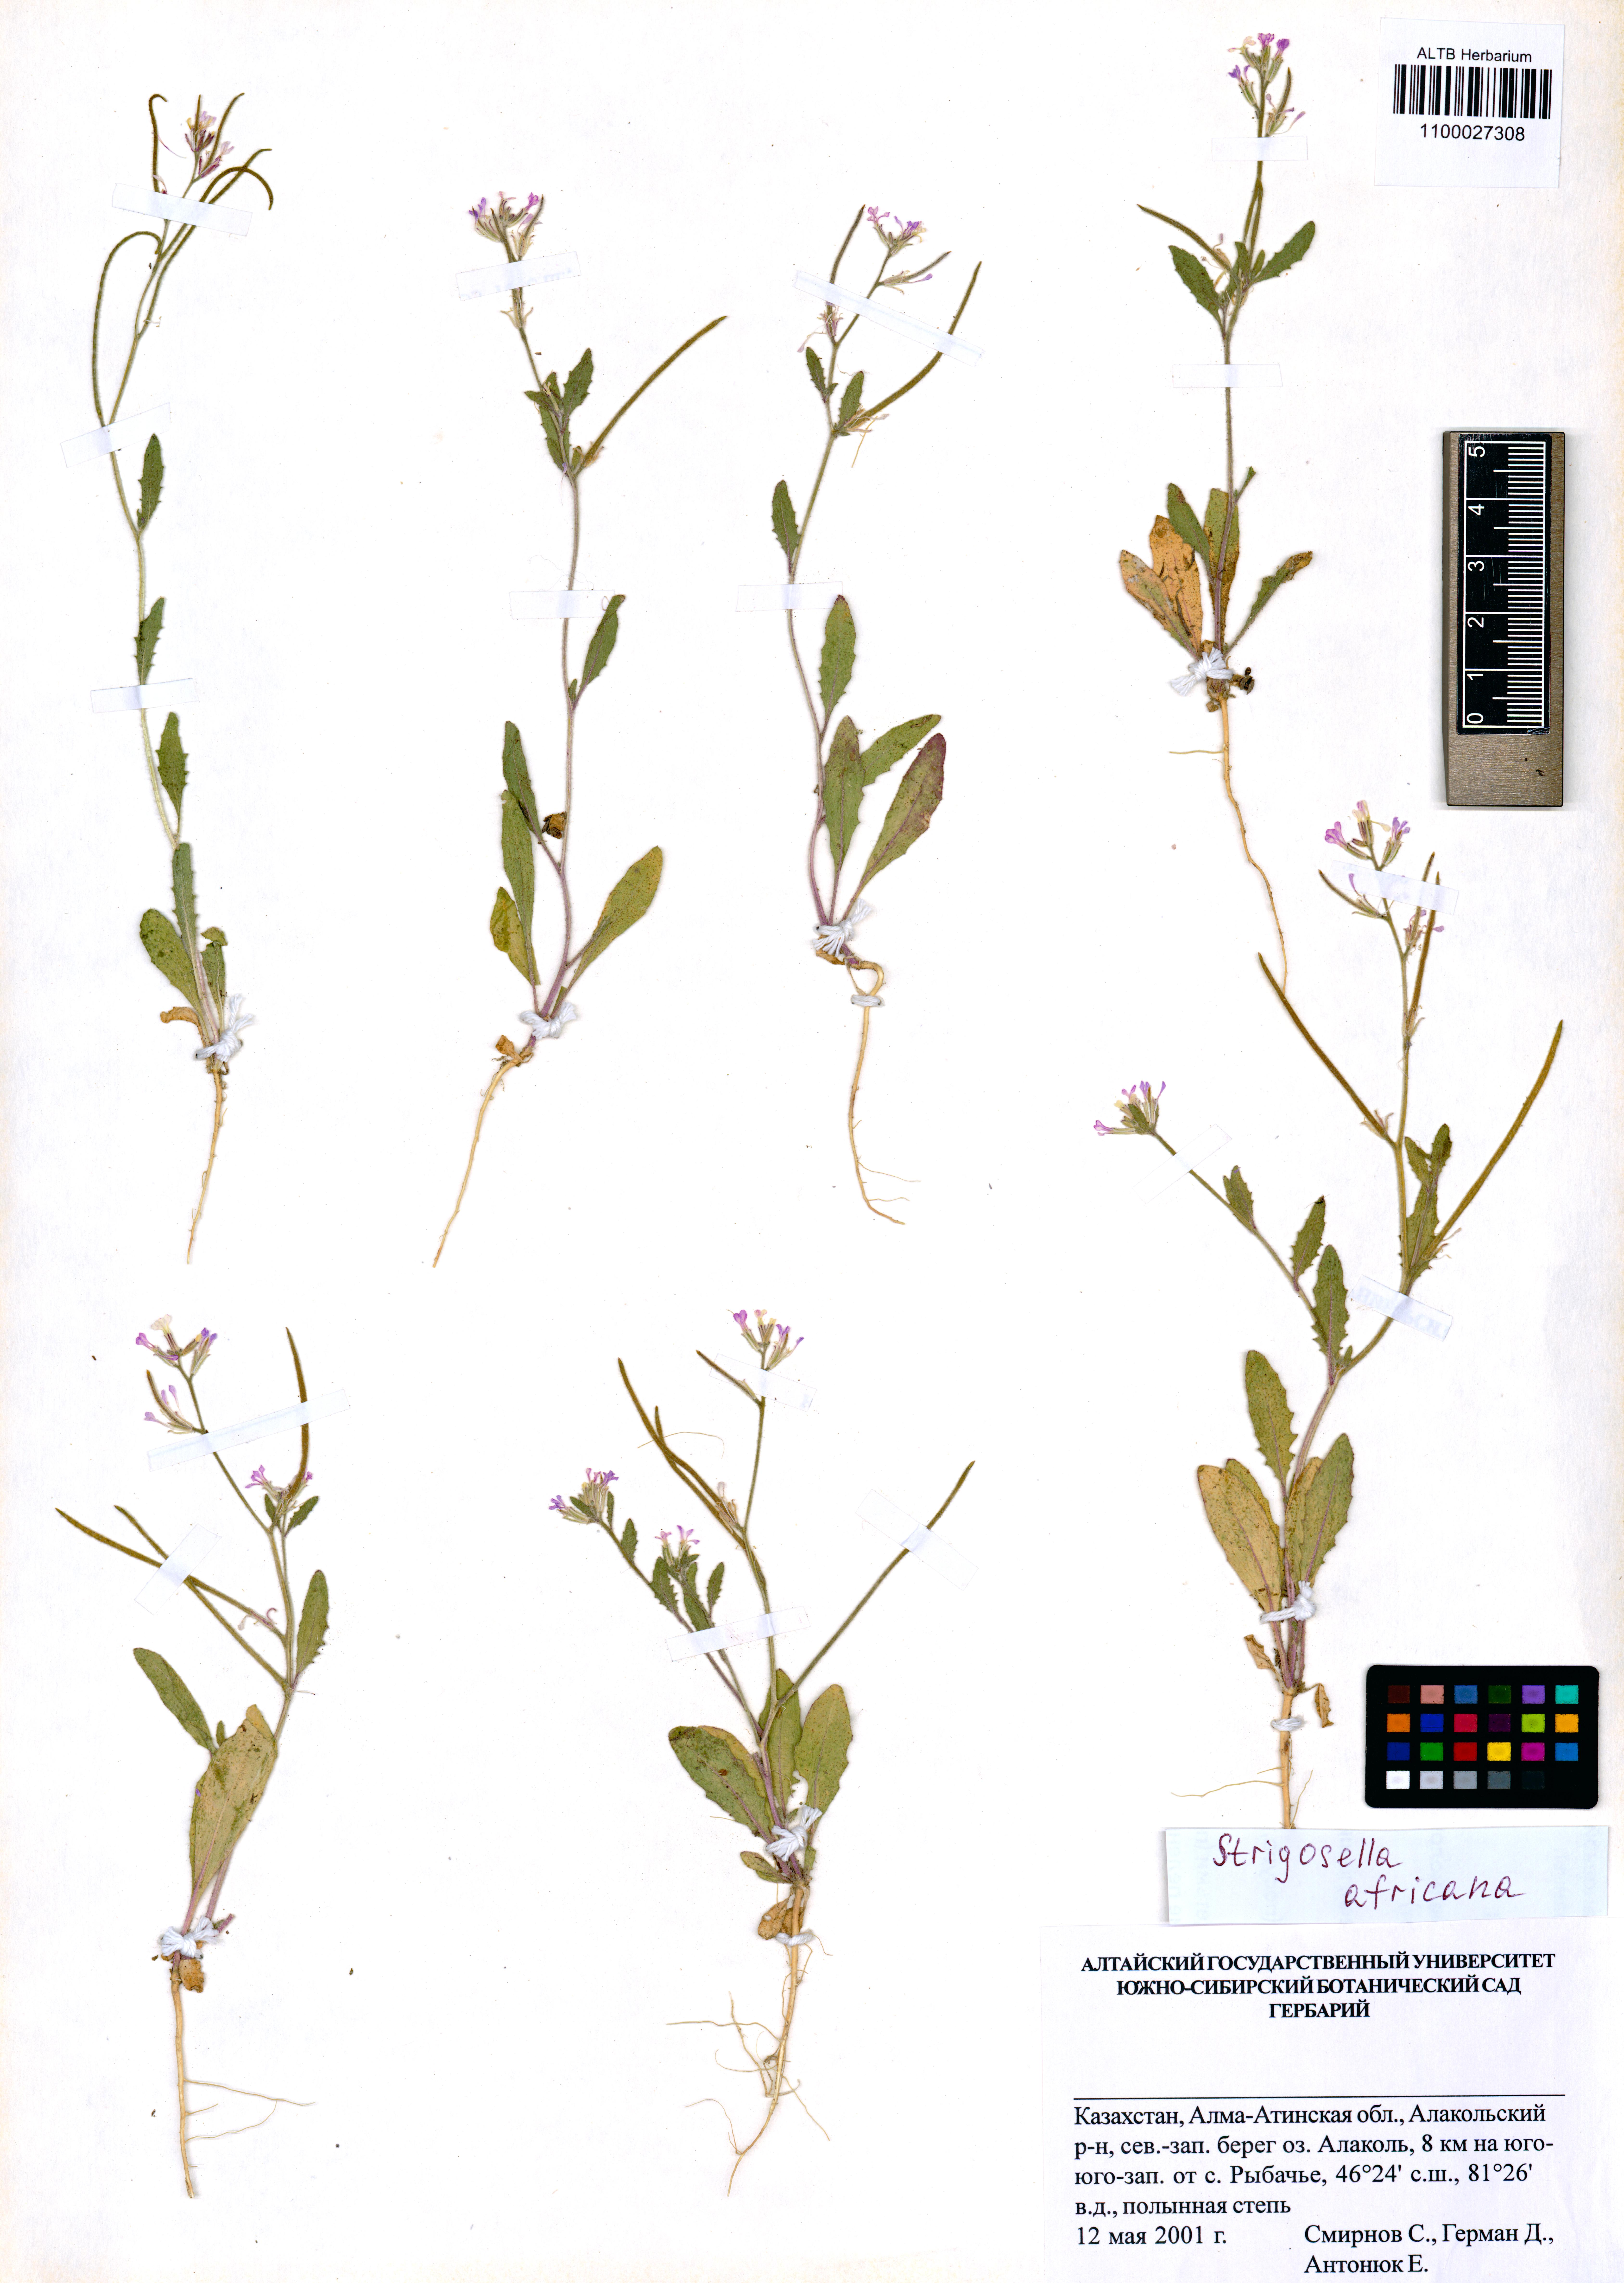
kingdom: Plantae
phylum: Tracheophyta
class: Magnoliopsida
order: Brassicales
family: Brassicaceae
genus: Strigosella
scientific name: Strigosella africana
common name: African mustard
